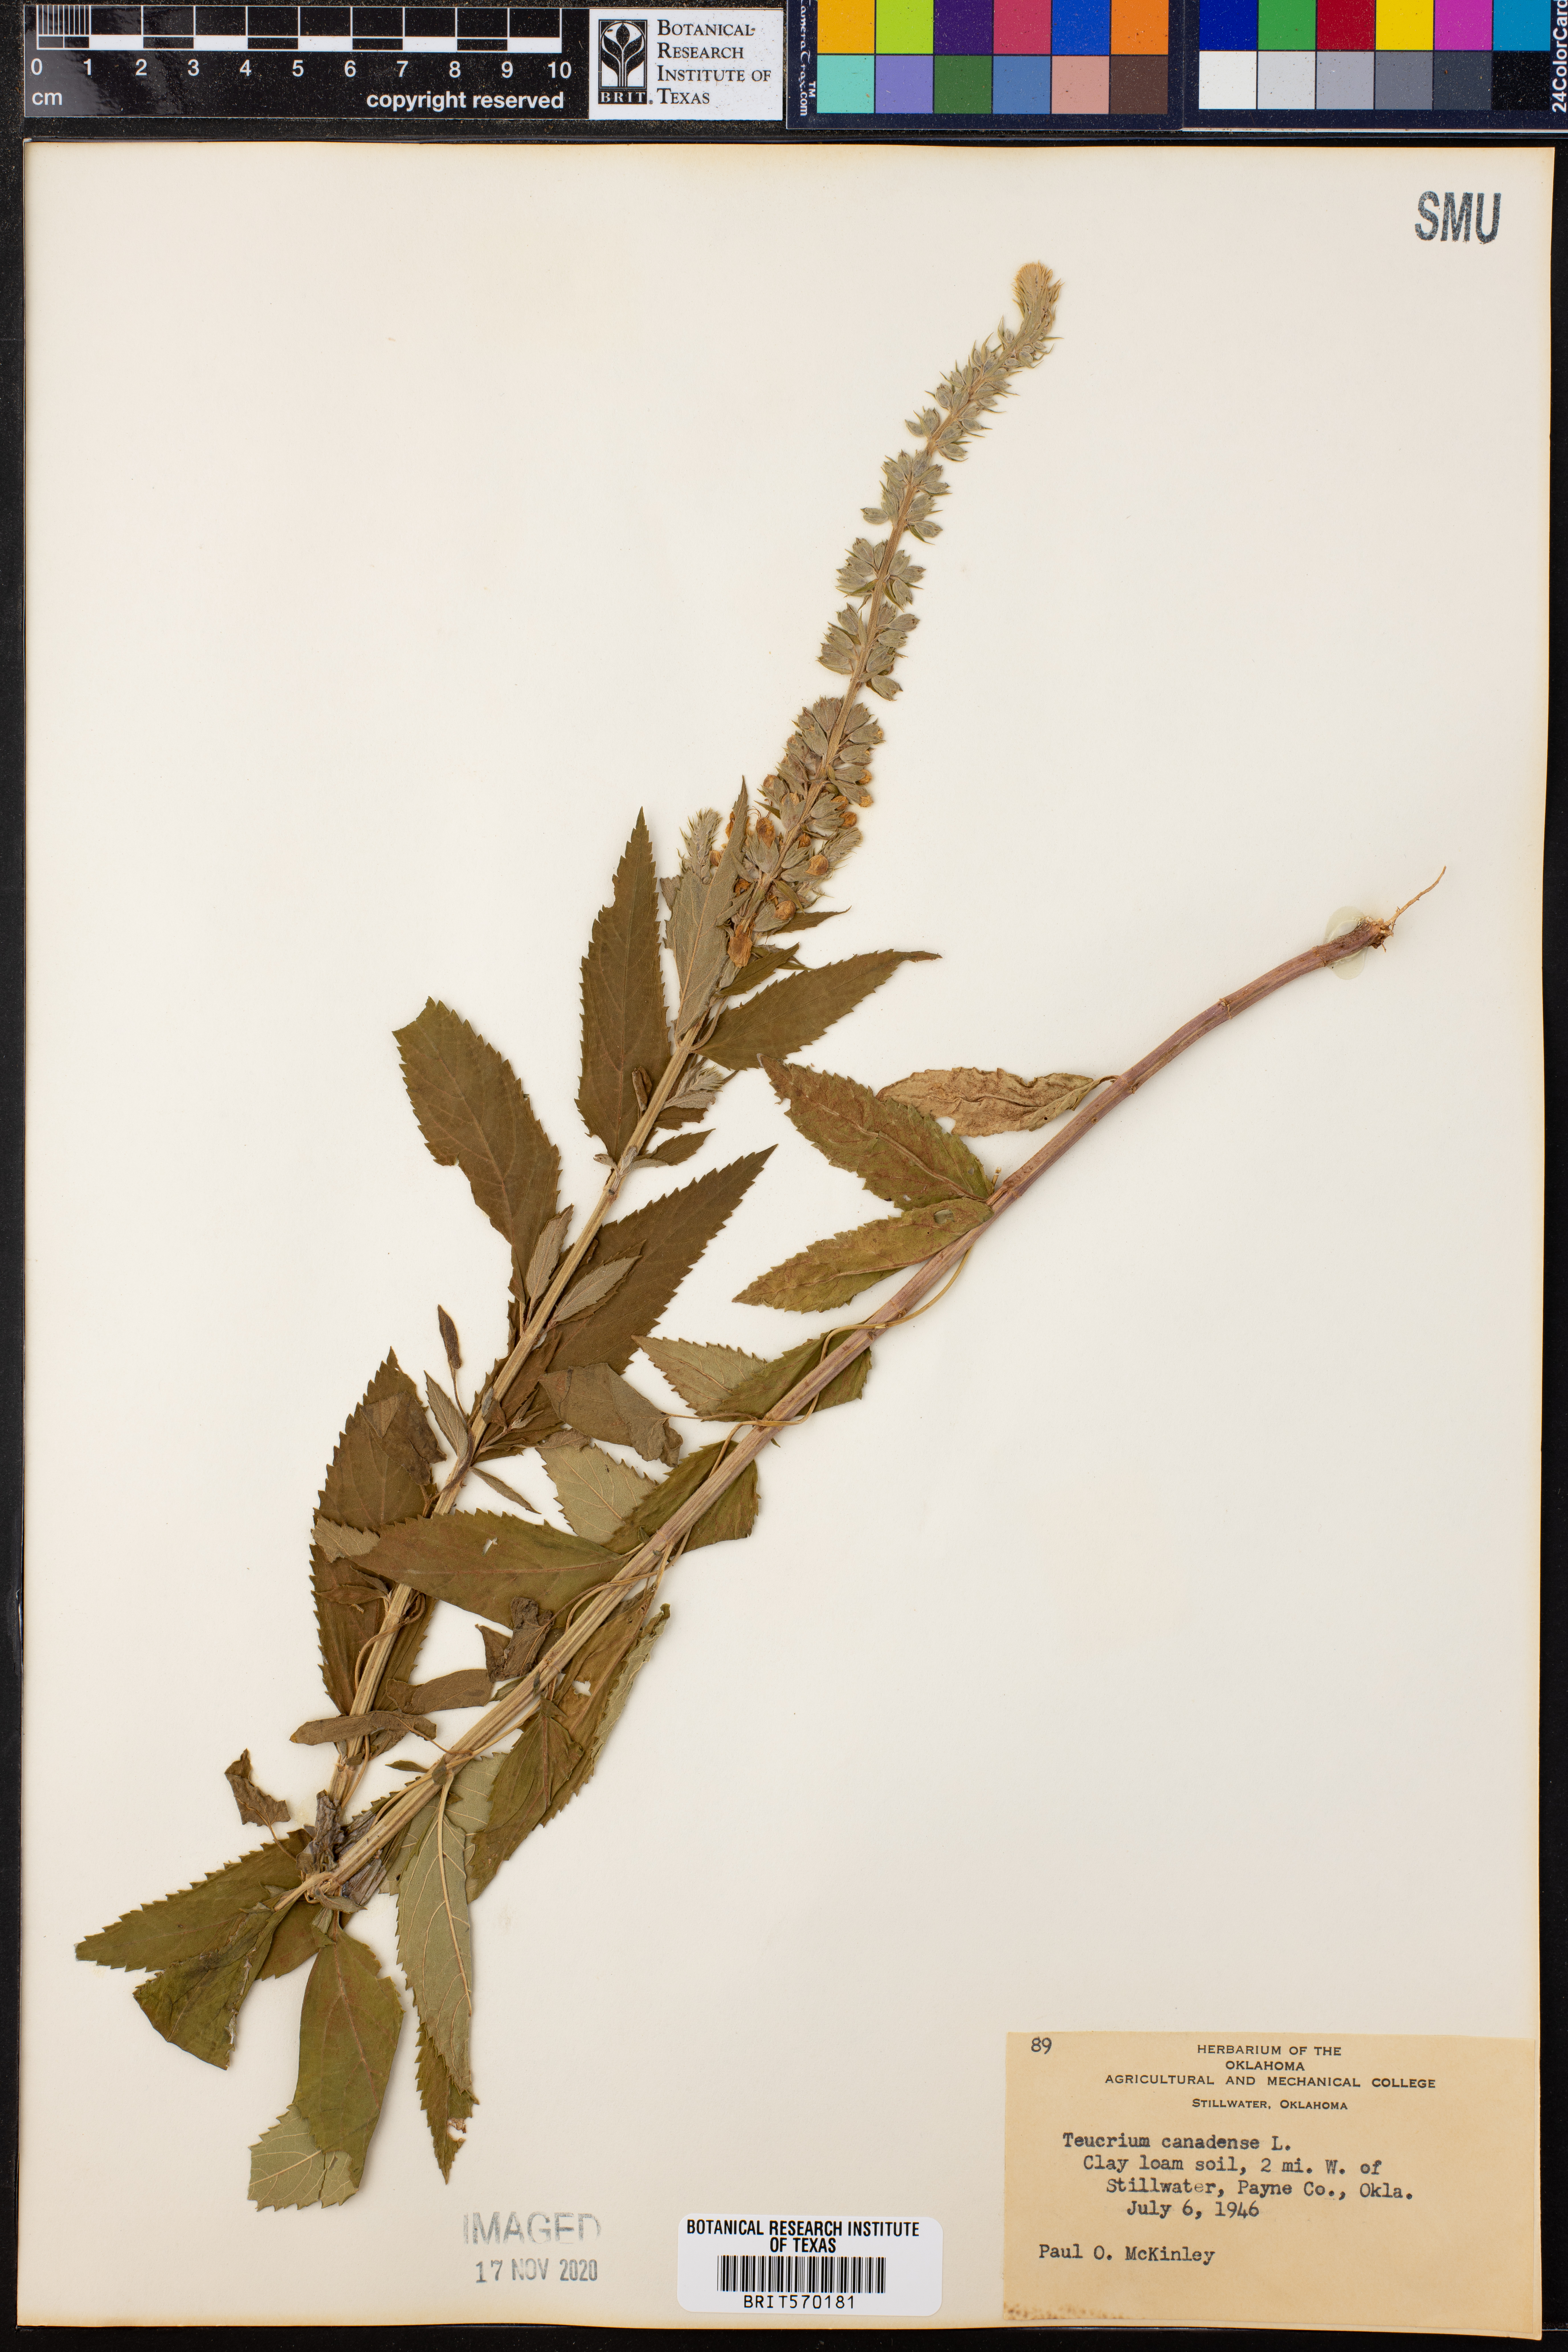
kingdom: Plantae
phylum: Tracheophyta
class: Magnoliopsida
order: Lamiales
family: Lamiaceae
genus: Teucrium
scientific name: Teucrium canadense
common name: American germander
